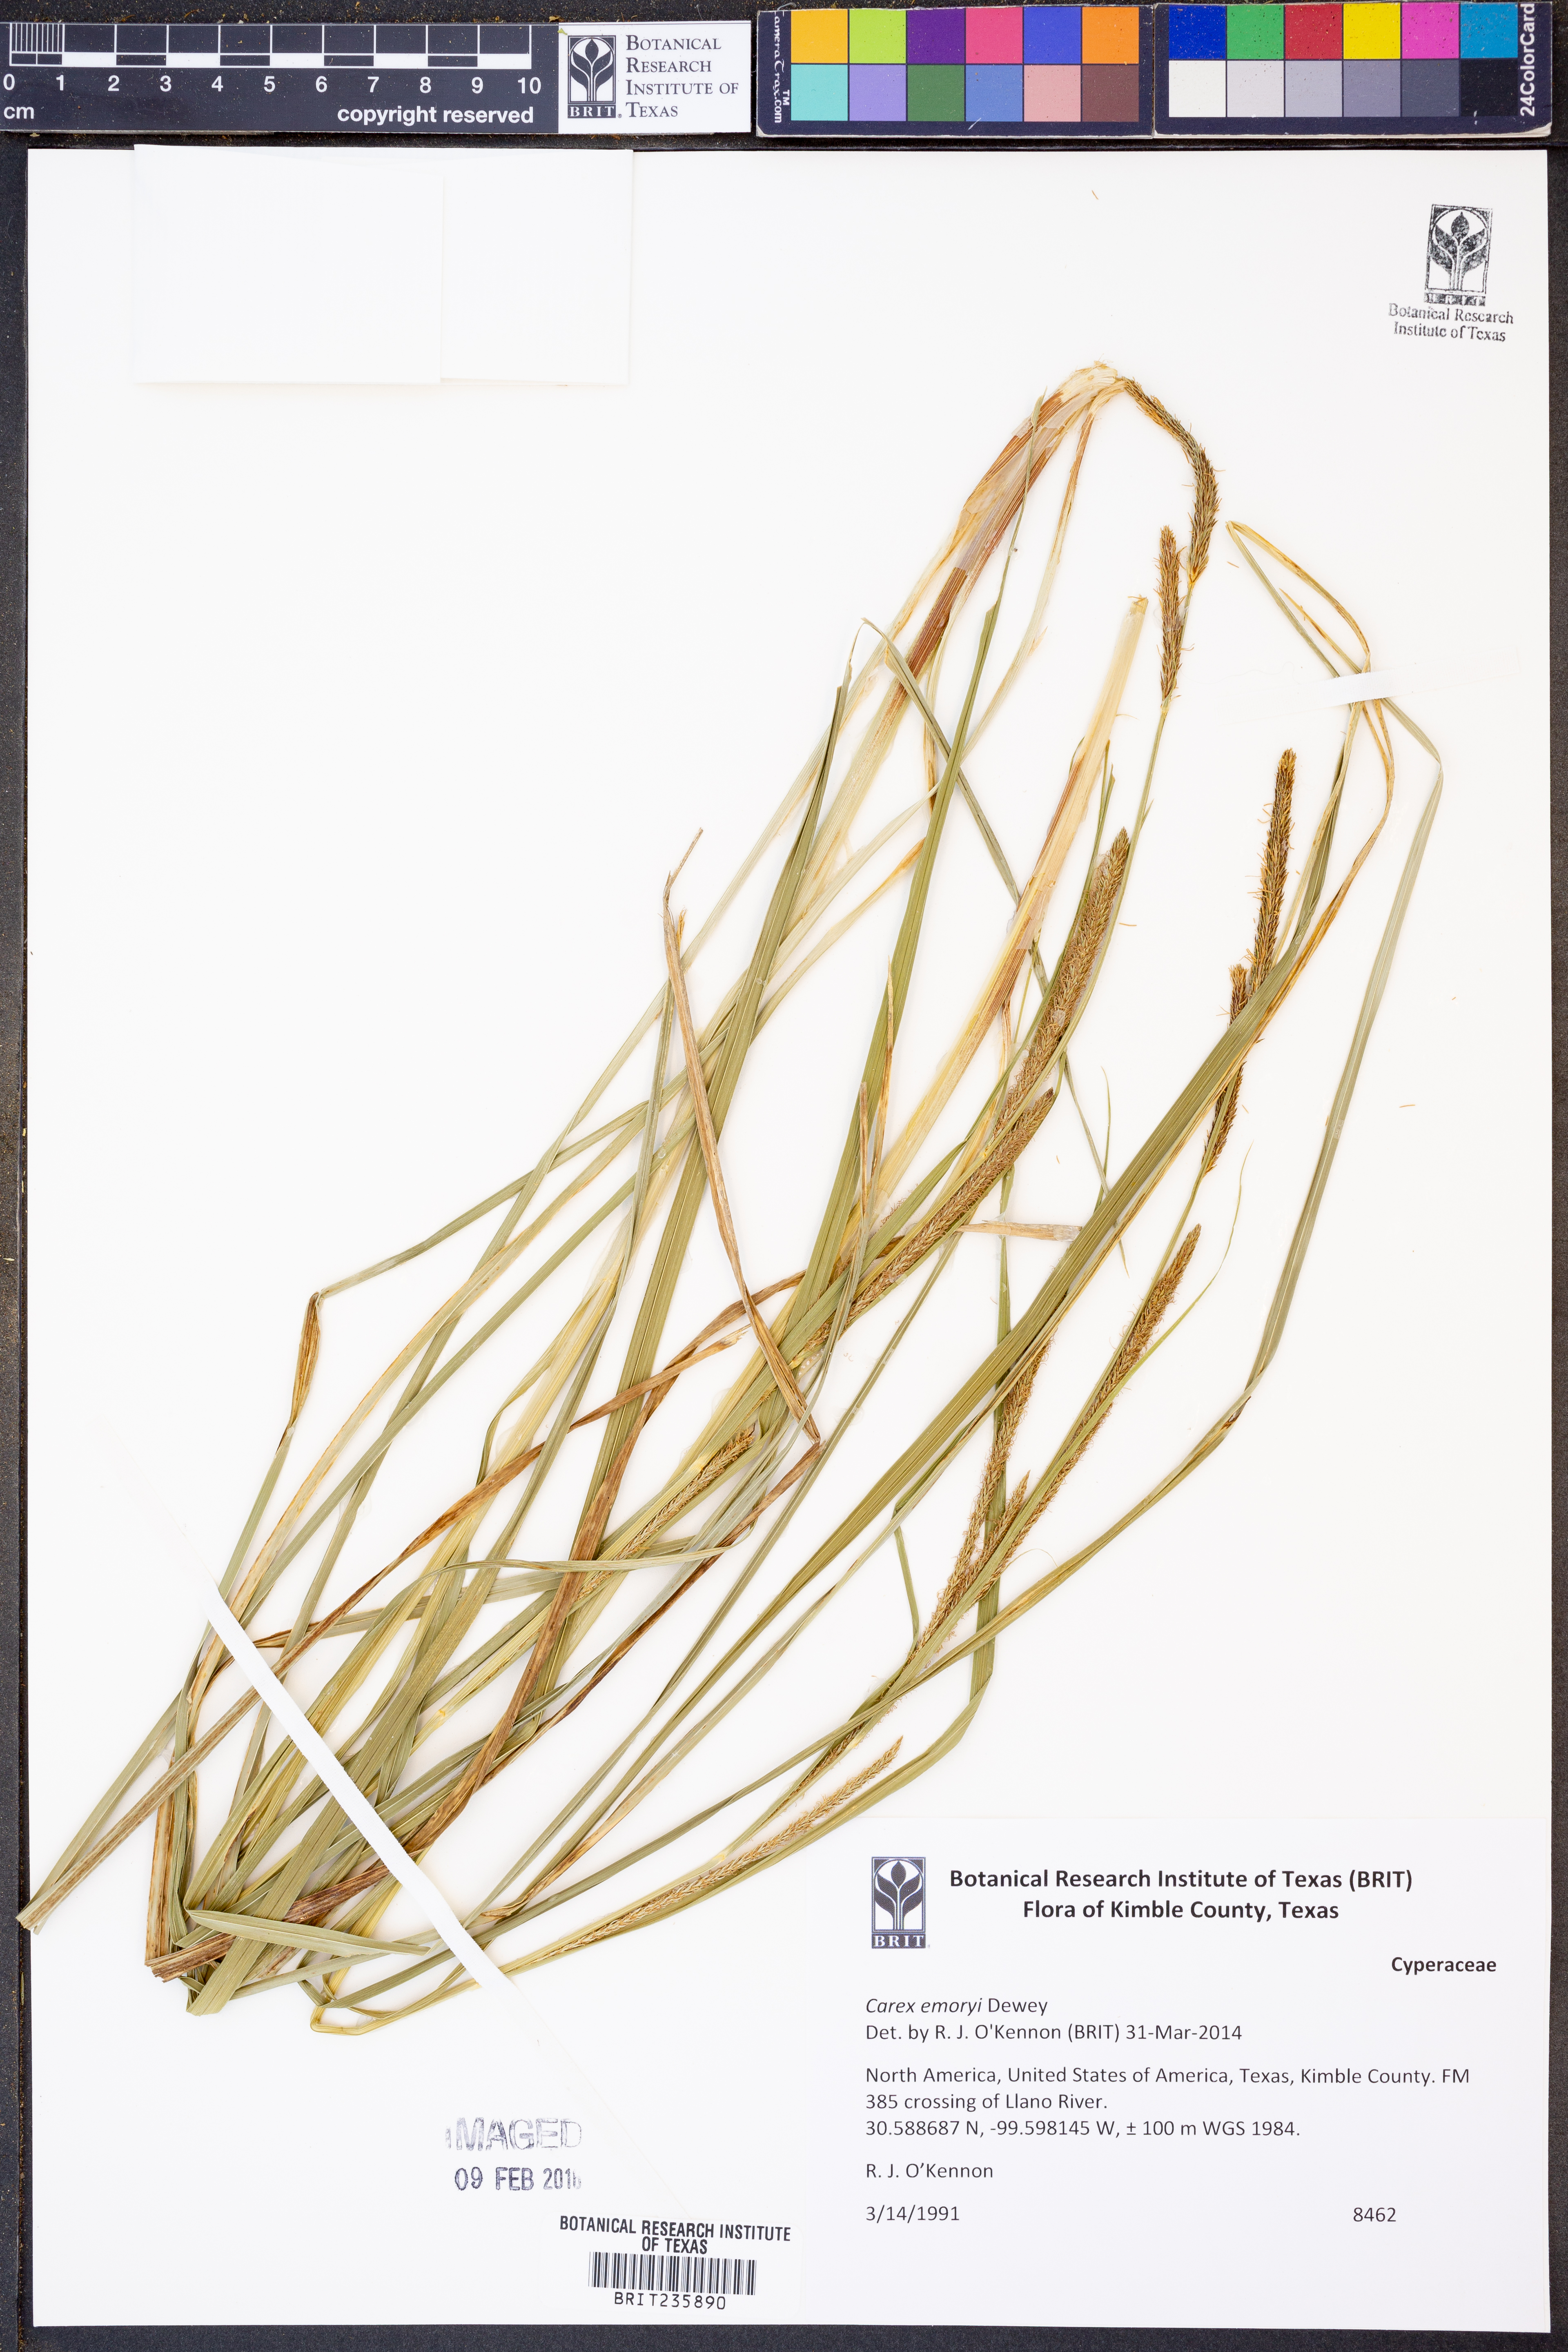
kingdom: Plantae
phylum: Tracheophyta
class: Liliopsida
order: Poales
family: Cyperaceae
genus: Carex
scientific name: Carex emoryi
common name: Emory's sedge
